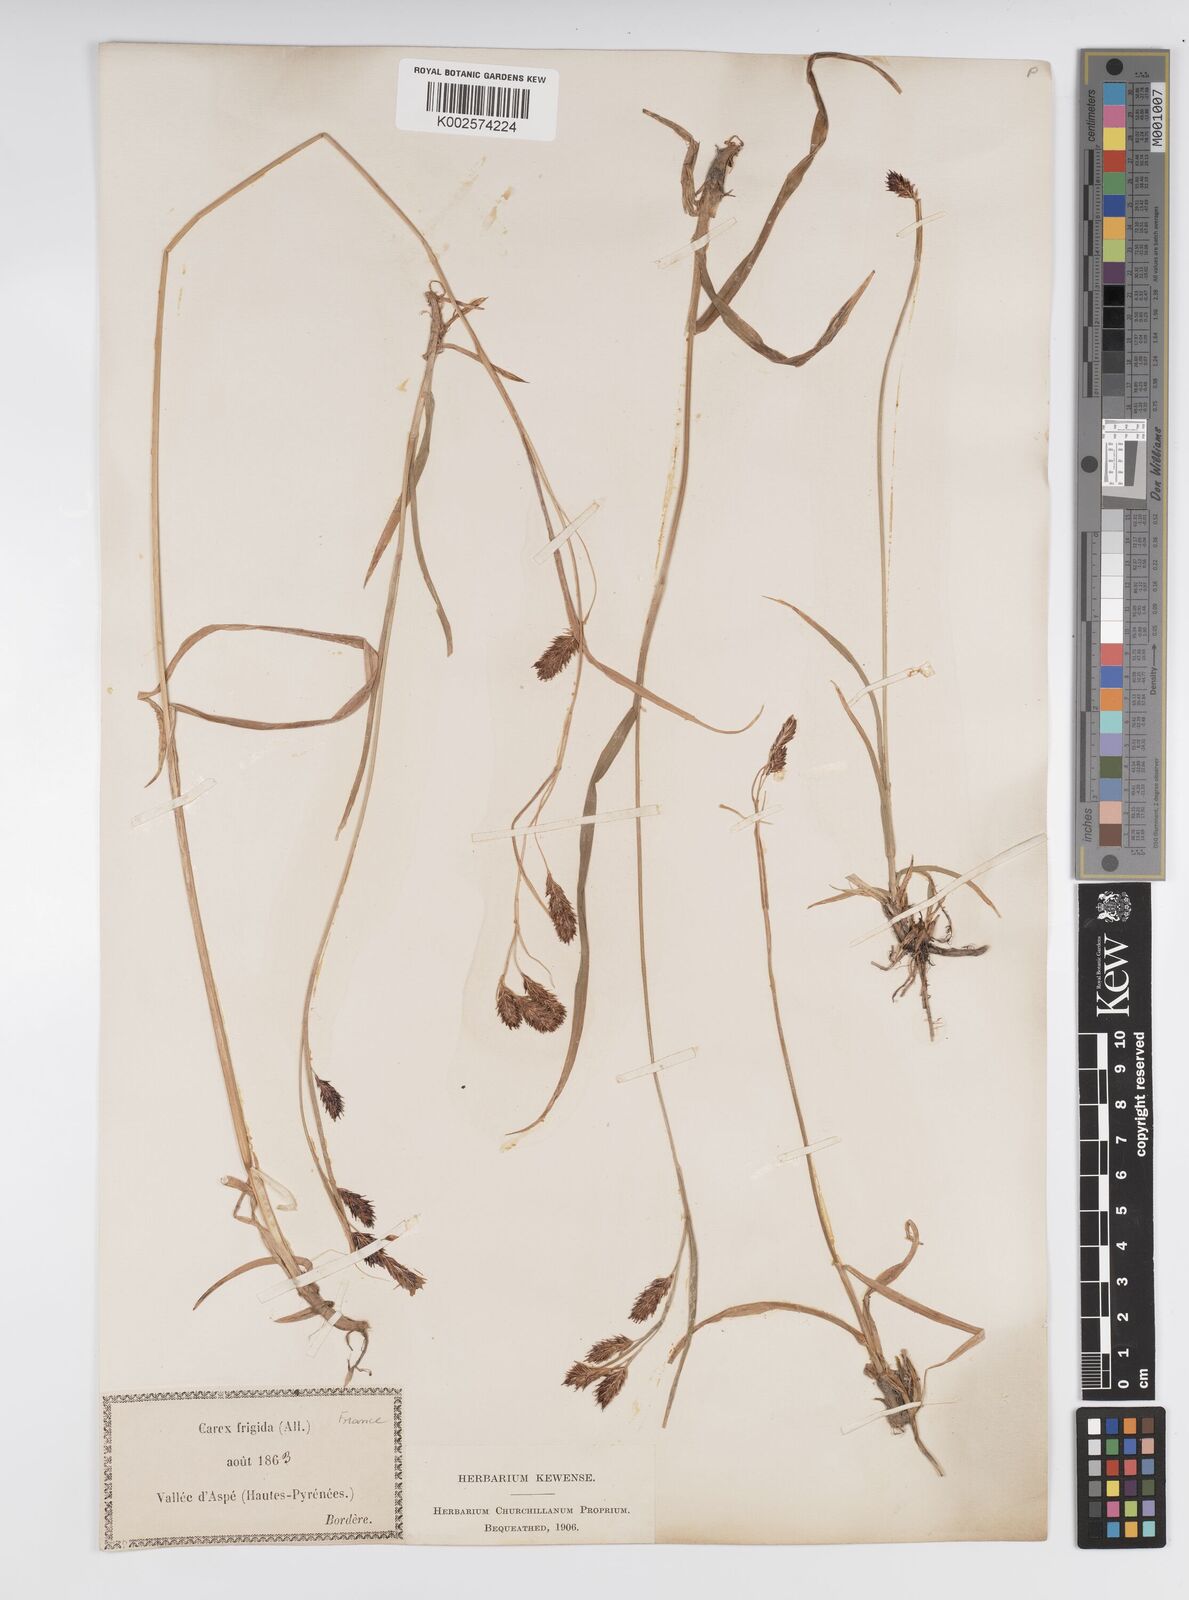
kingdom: Plantae
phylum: Tracheophyta
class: Liliopsida
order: Poales
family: Cyperaceae
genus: Carex
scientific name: Carex frigida
